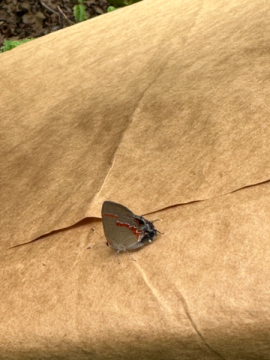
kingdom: Animalia
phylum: Arthropoda
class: Insecta
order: Lepidoptera
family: Lycaenidae
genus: Calycopis
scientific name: Calycopis cecrops
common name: Red-banded Hairstreak
